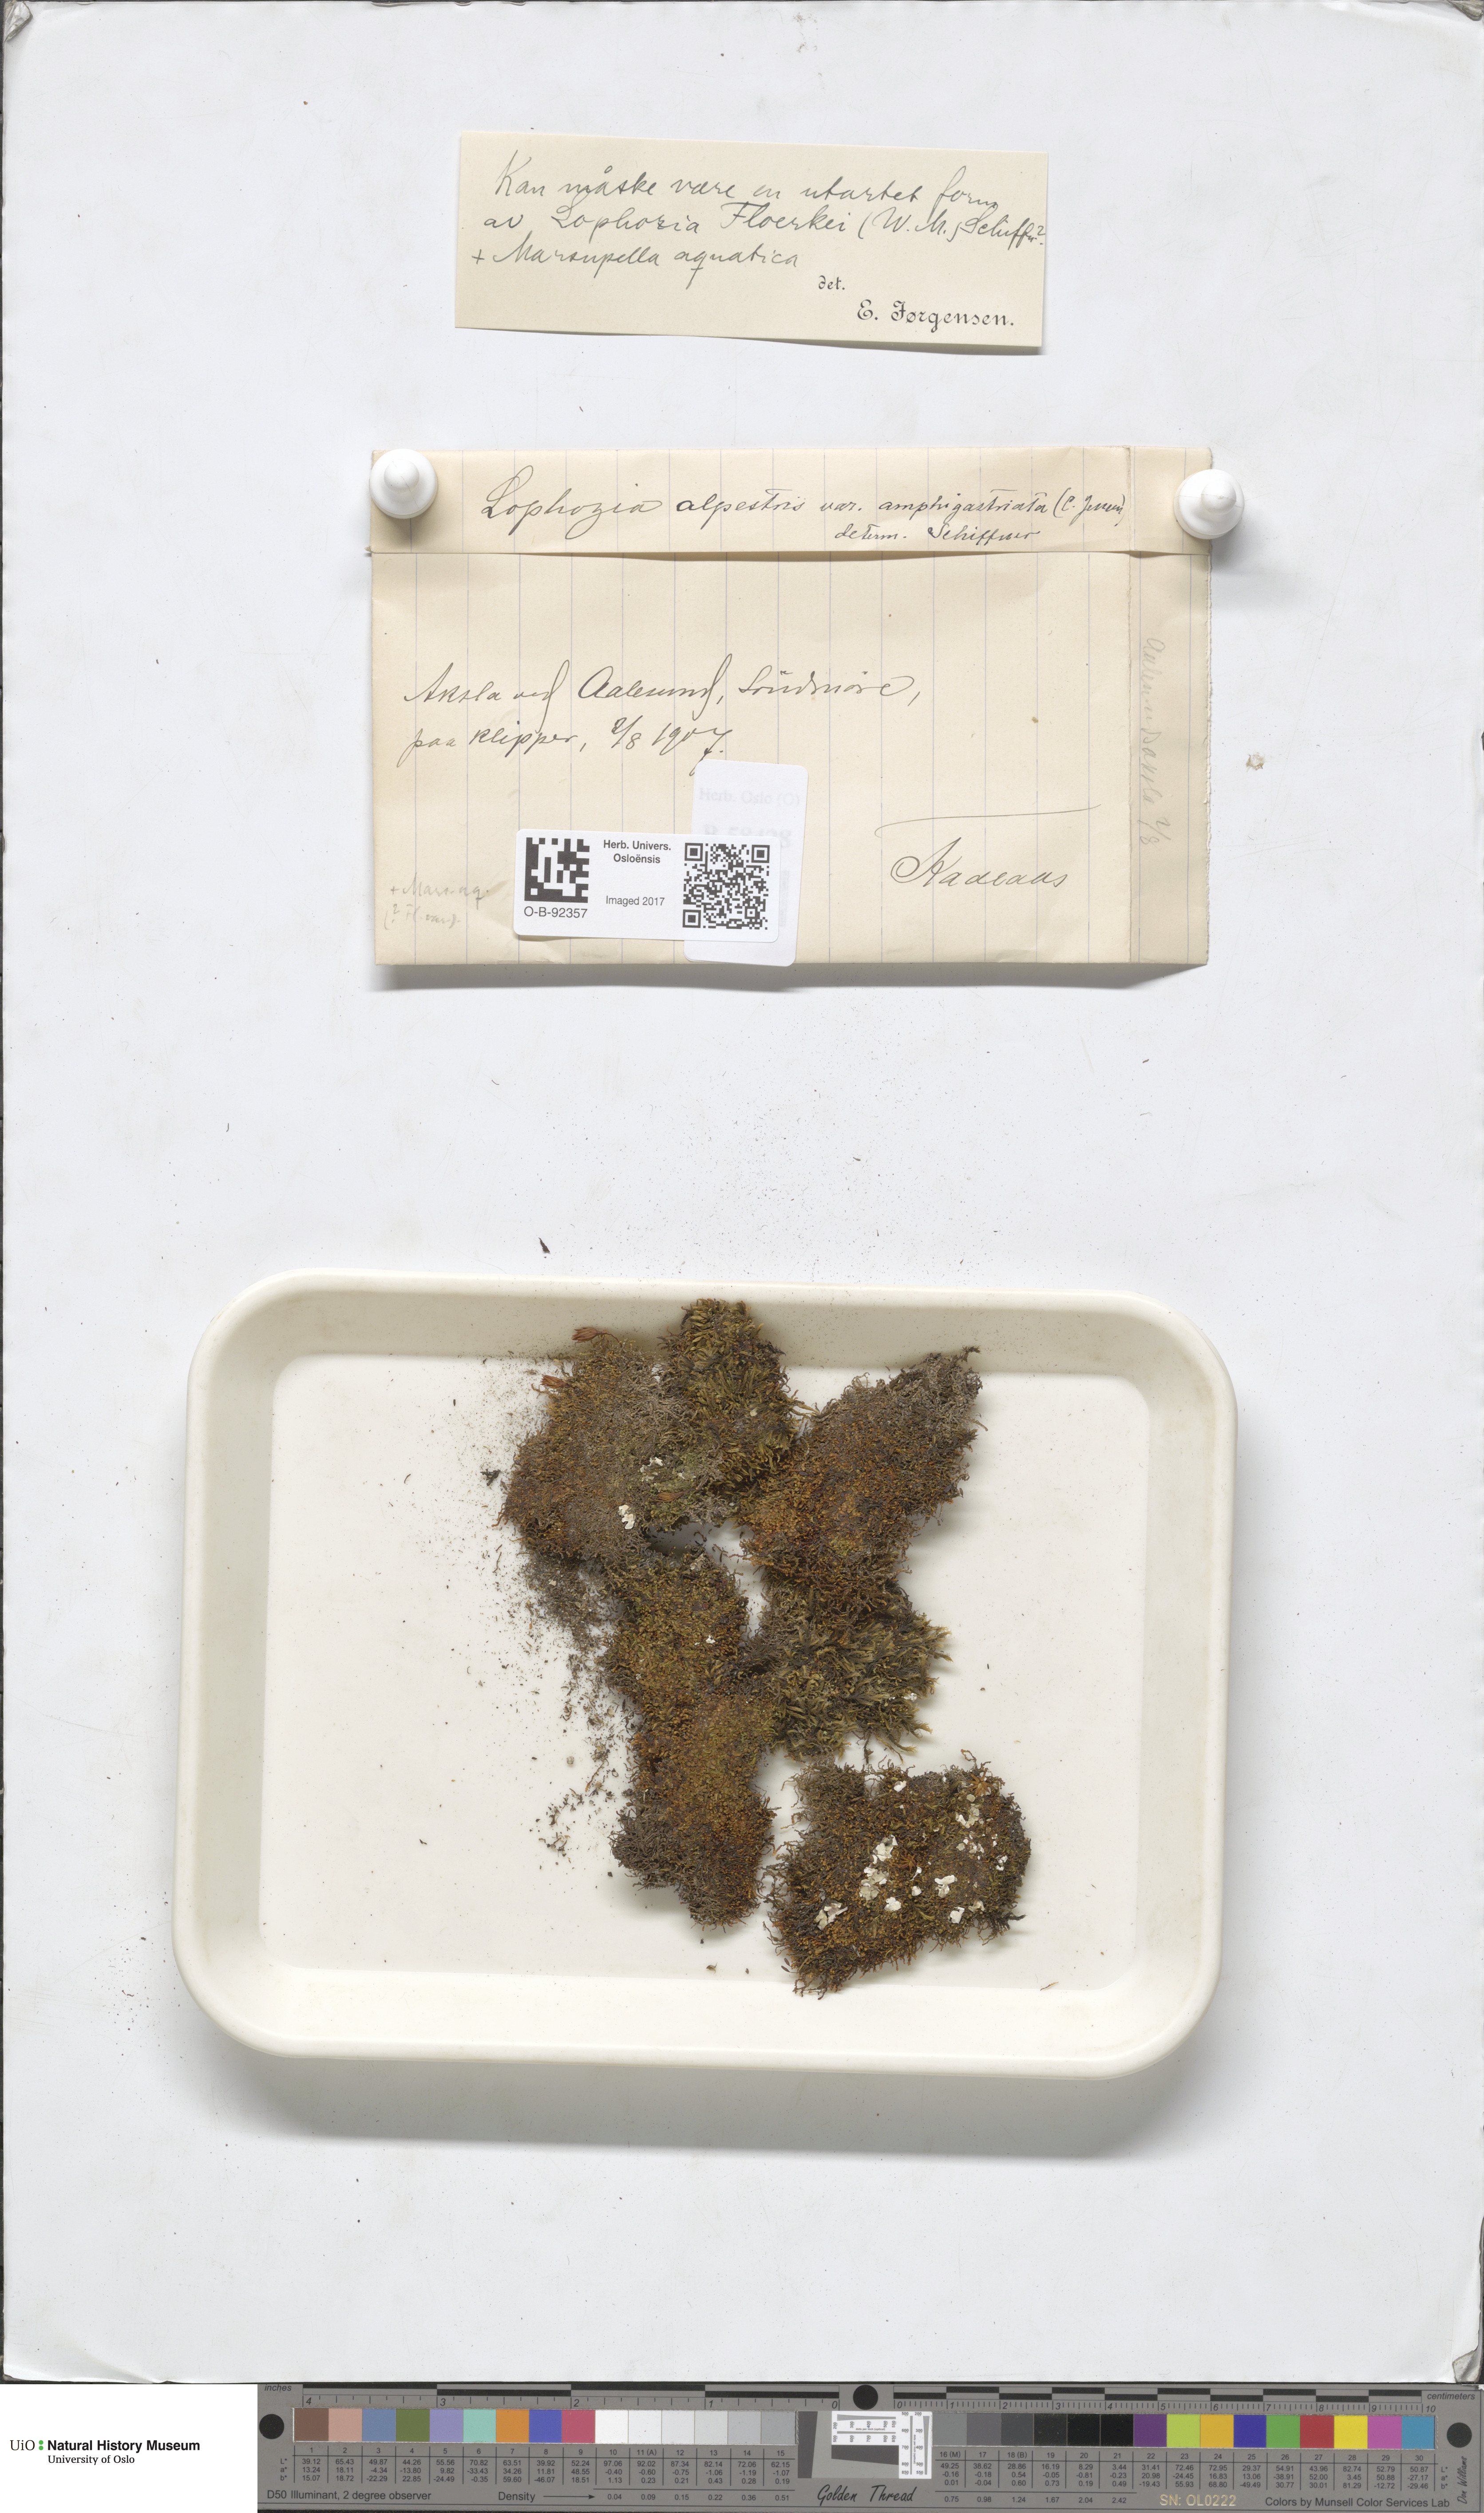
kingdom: Plantae
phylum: Marchantiophyta
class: Jungermanniopsida
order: Jungermanniales
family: Anastrophyllaceae
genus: Barbilophozia
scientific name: Barbilophozia sudetica
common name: Hill notchwort
